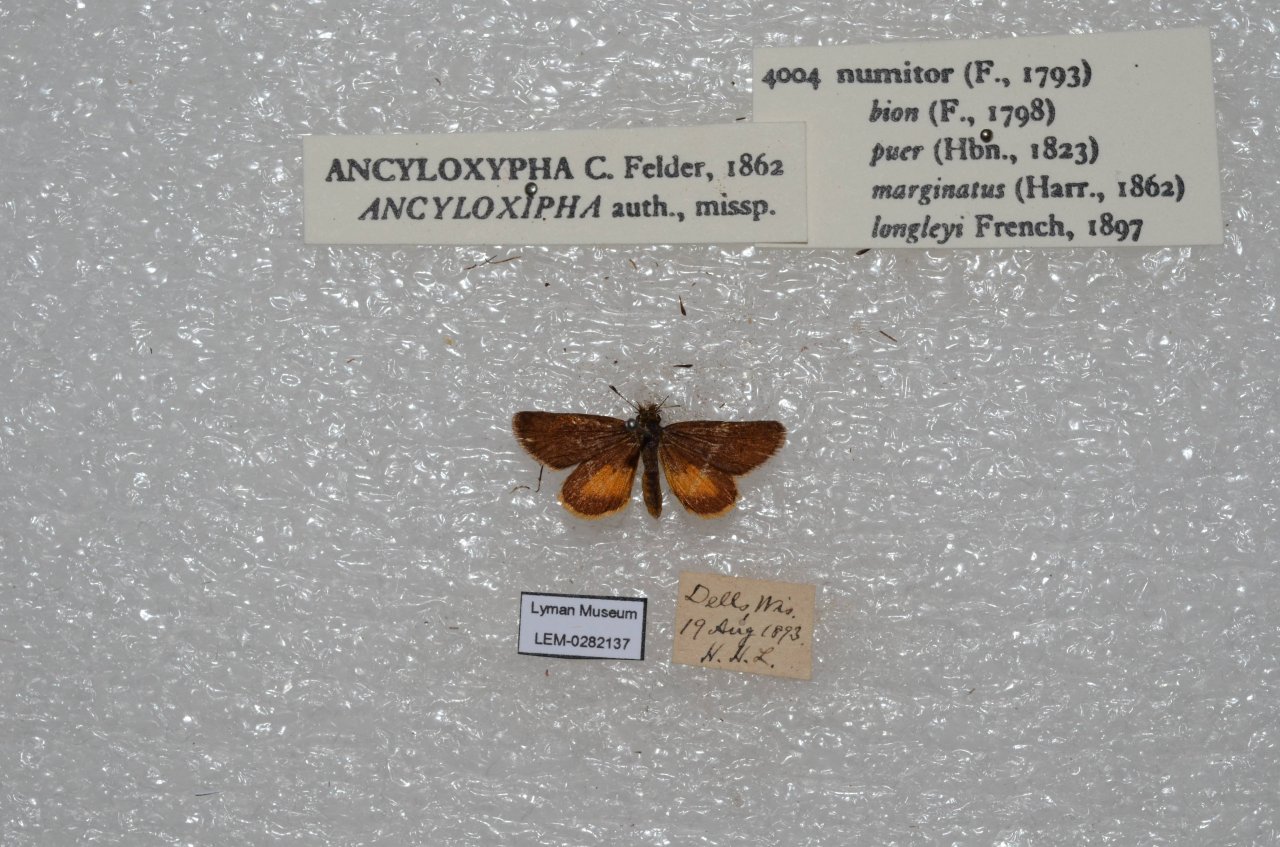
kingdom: Animalia
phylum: Arthropoda
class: Insecta
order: Lepidoptera
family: Hesperiidae
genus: Ancyloxypha
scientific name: Ancyloxypha numitor
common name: Least Skipper
